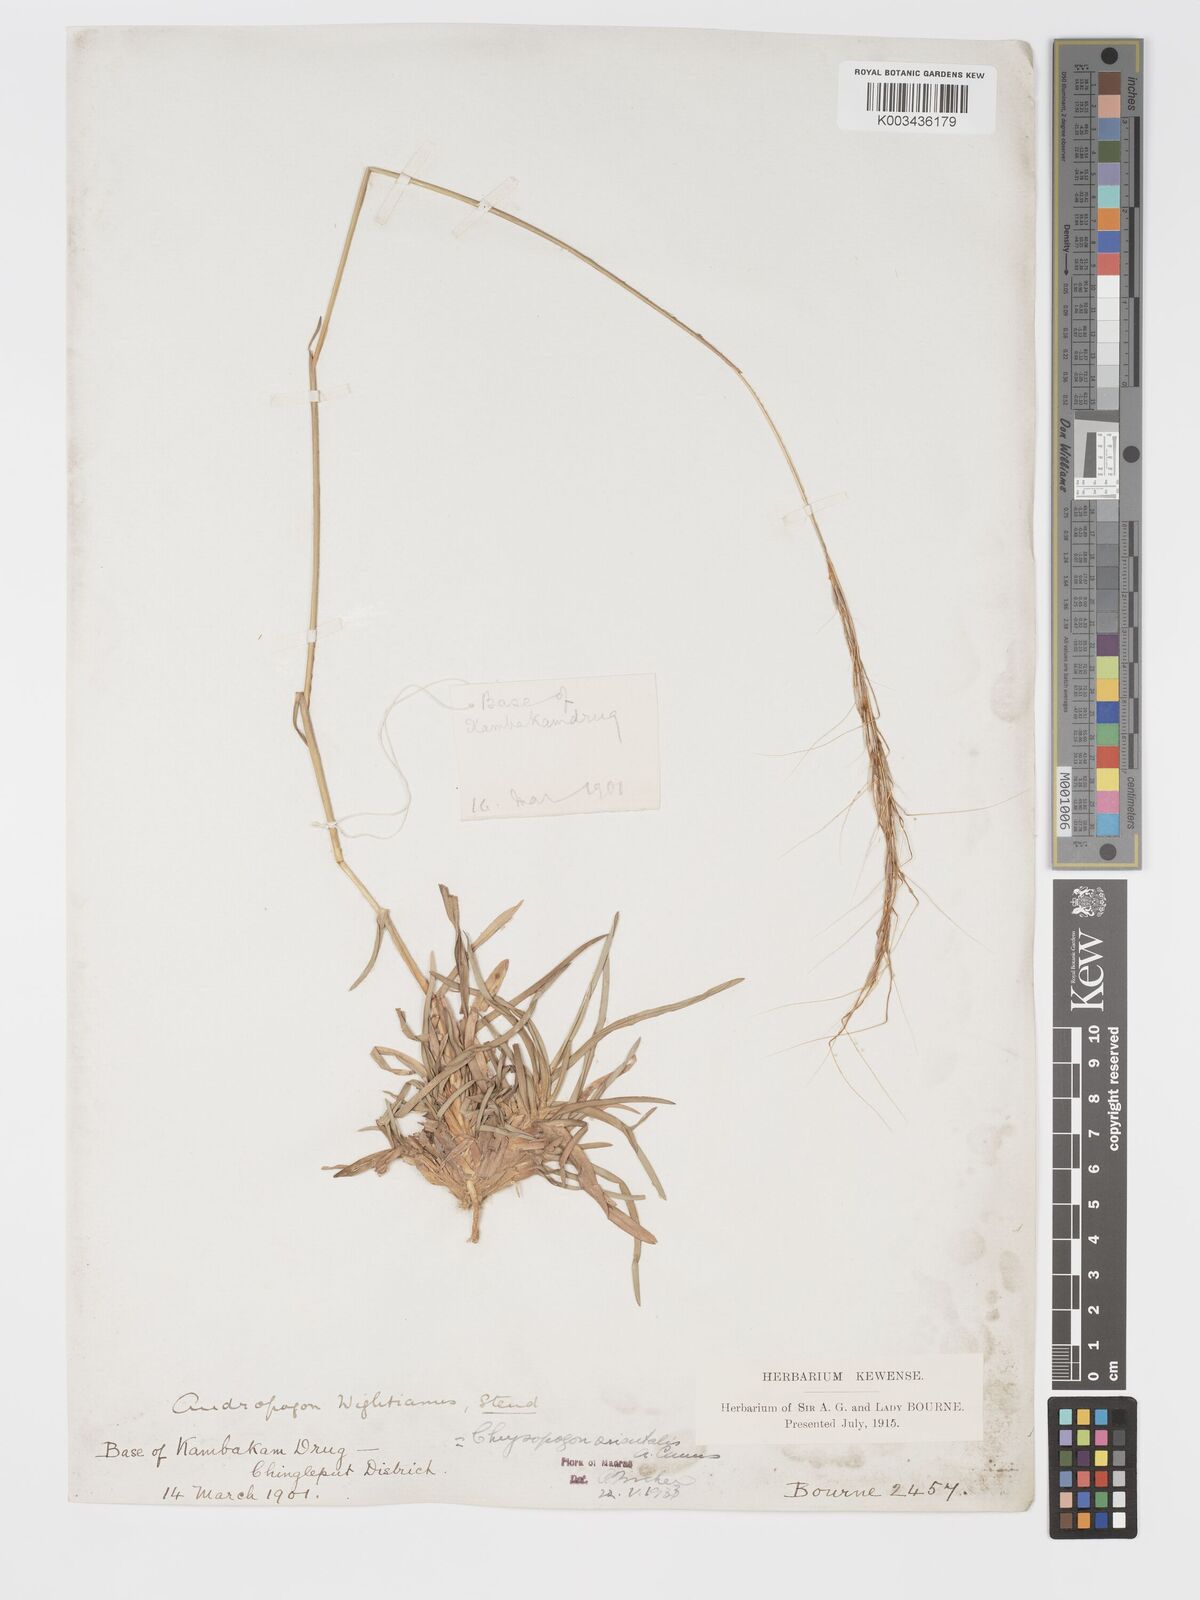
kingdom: Plantae
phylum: Tracheophyta
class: Liliopsida
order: Poales
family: Poaceae
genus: Chrysopogon
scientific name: Chrysopogon orientalis
